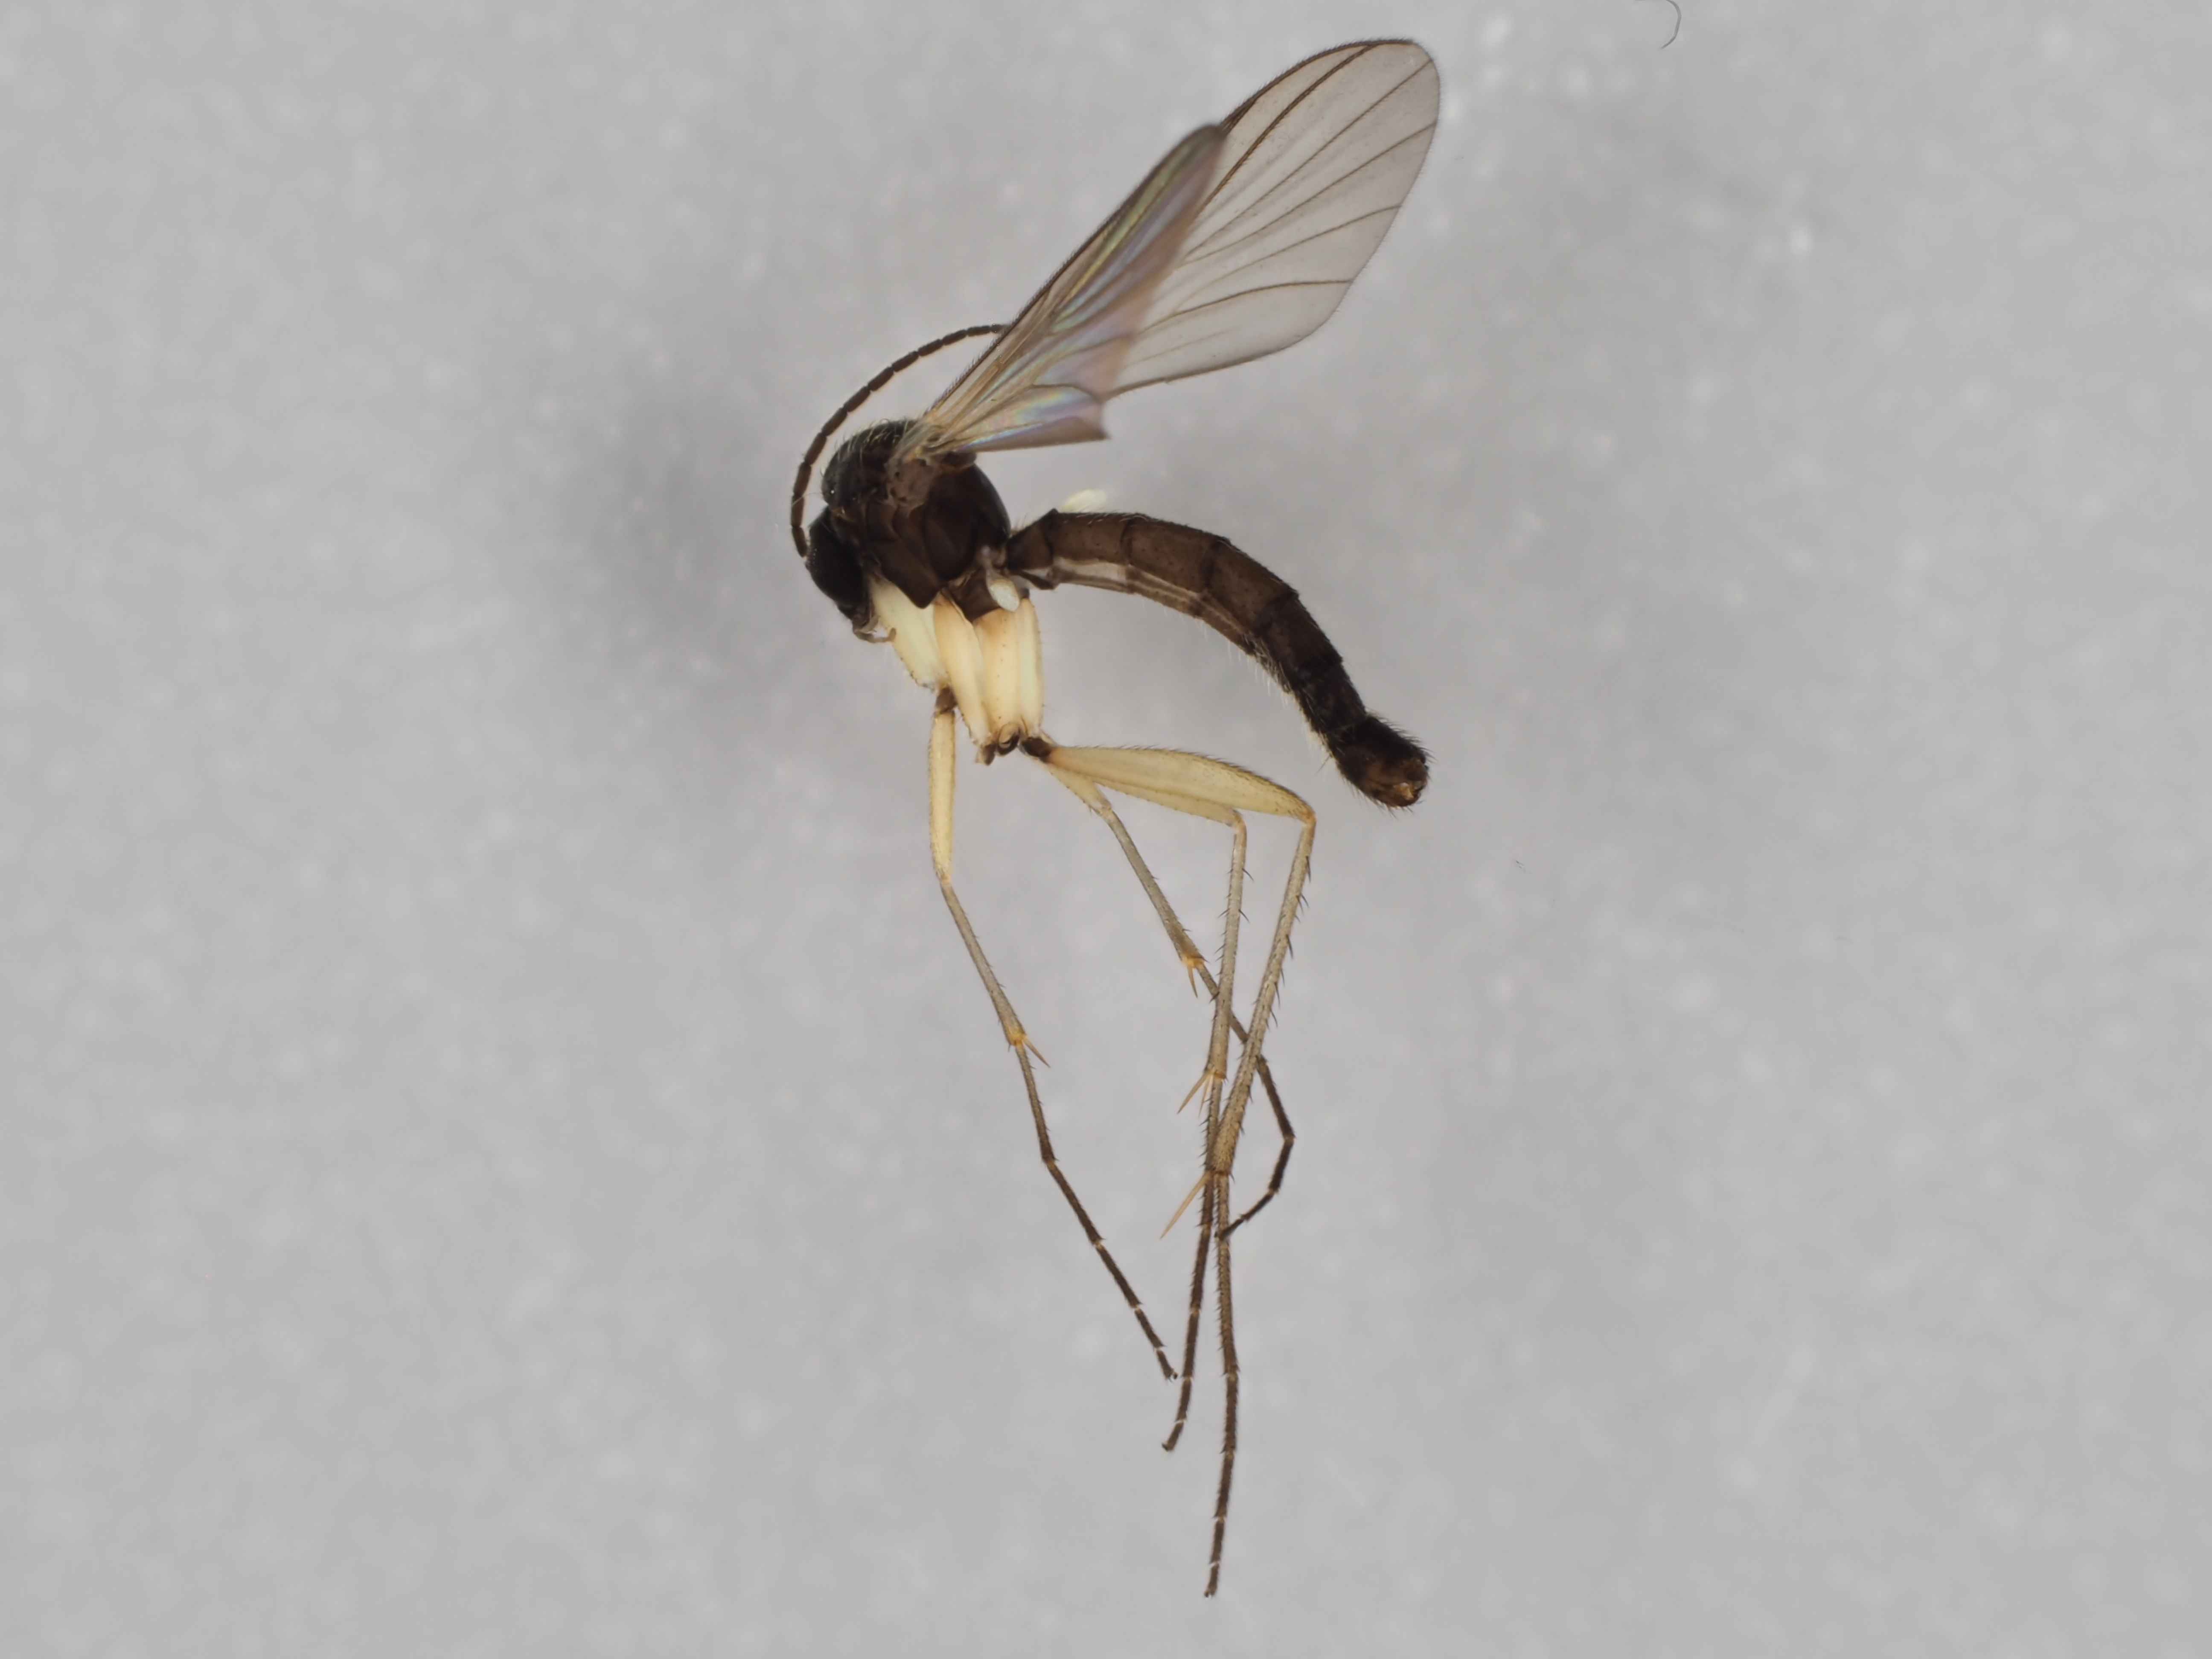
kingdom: Animalia
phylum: Arthropoda
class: Insecta
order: Diptera
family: Mycetophilidae
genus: Boletina
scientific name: Boletina nigricans
